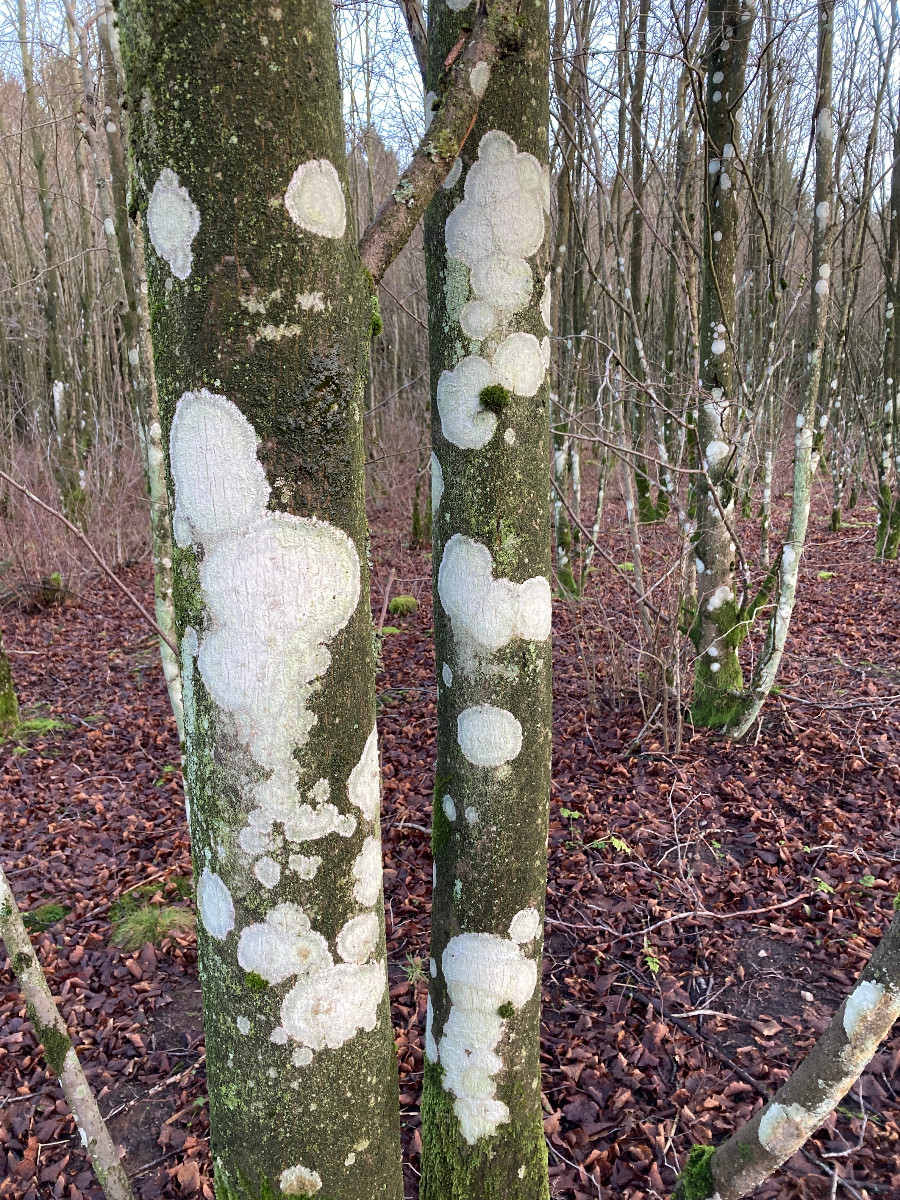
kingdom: Fungi
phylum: Ascomycota
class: Lecanoromycetes
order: Ostropales
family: Phlyctidaceae
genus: Phlyctis
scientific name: Phlyctis argena
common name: almindelig sølvlav
